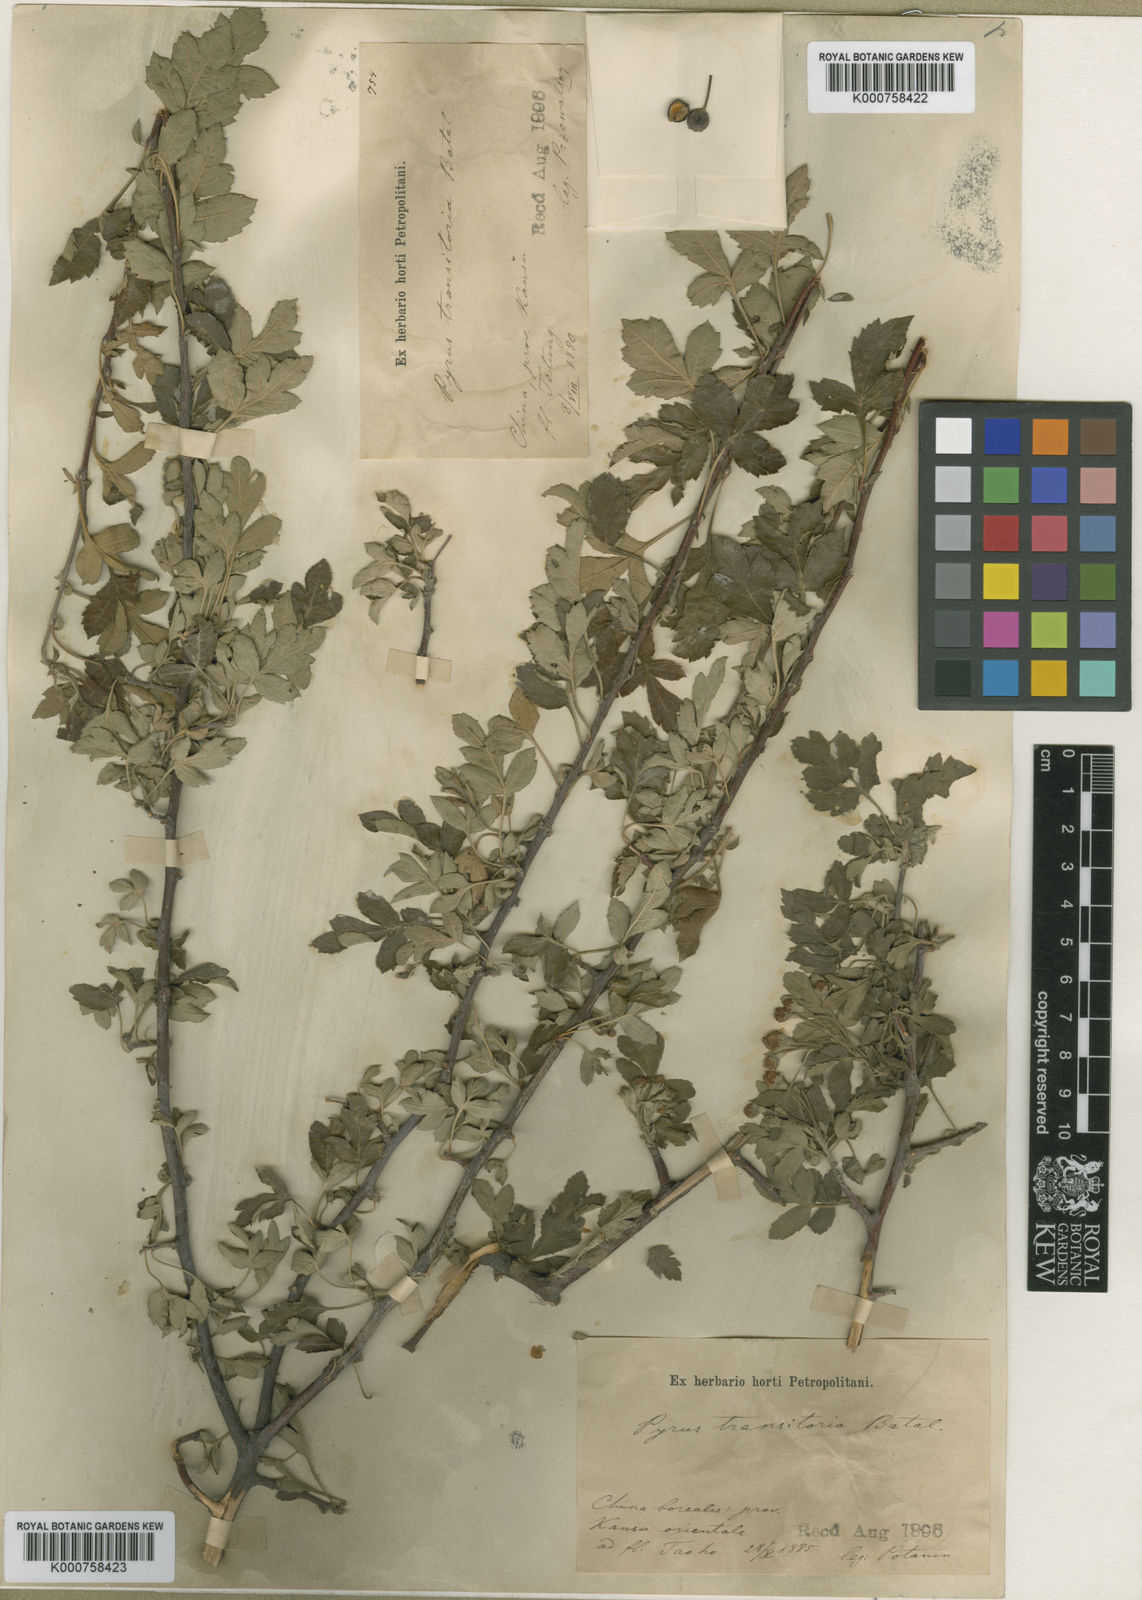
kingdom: Plantae
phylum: Tracheophyta
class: Magnoliopsida
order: Rosales
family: Rosaceae
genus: Malus
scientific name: Malus transitoria
